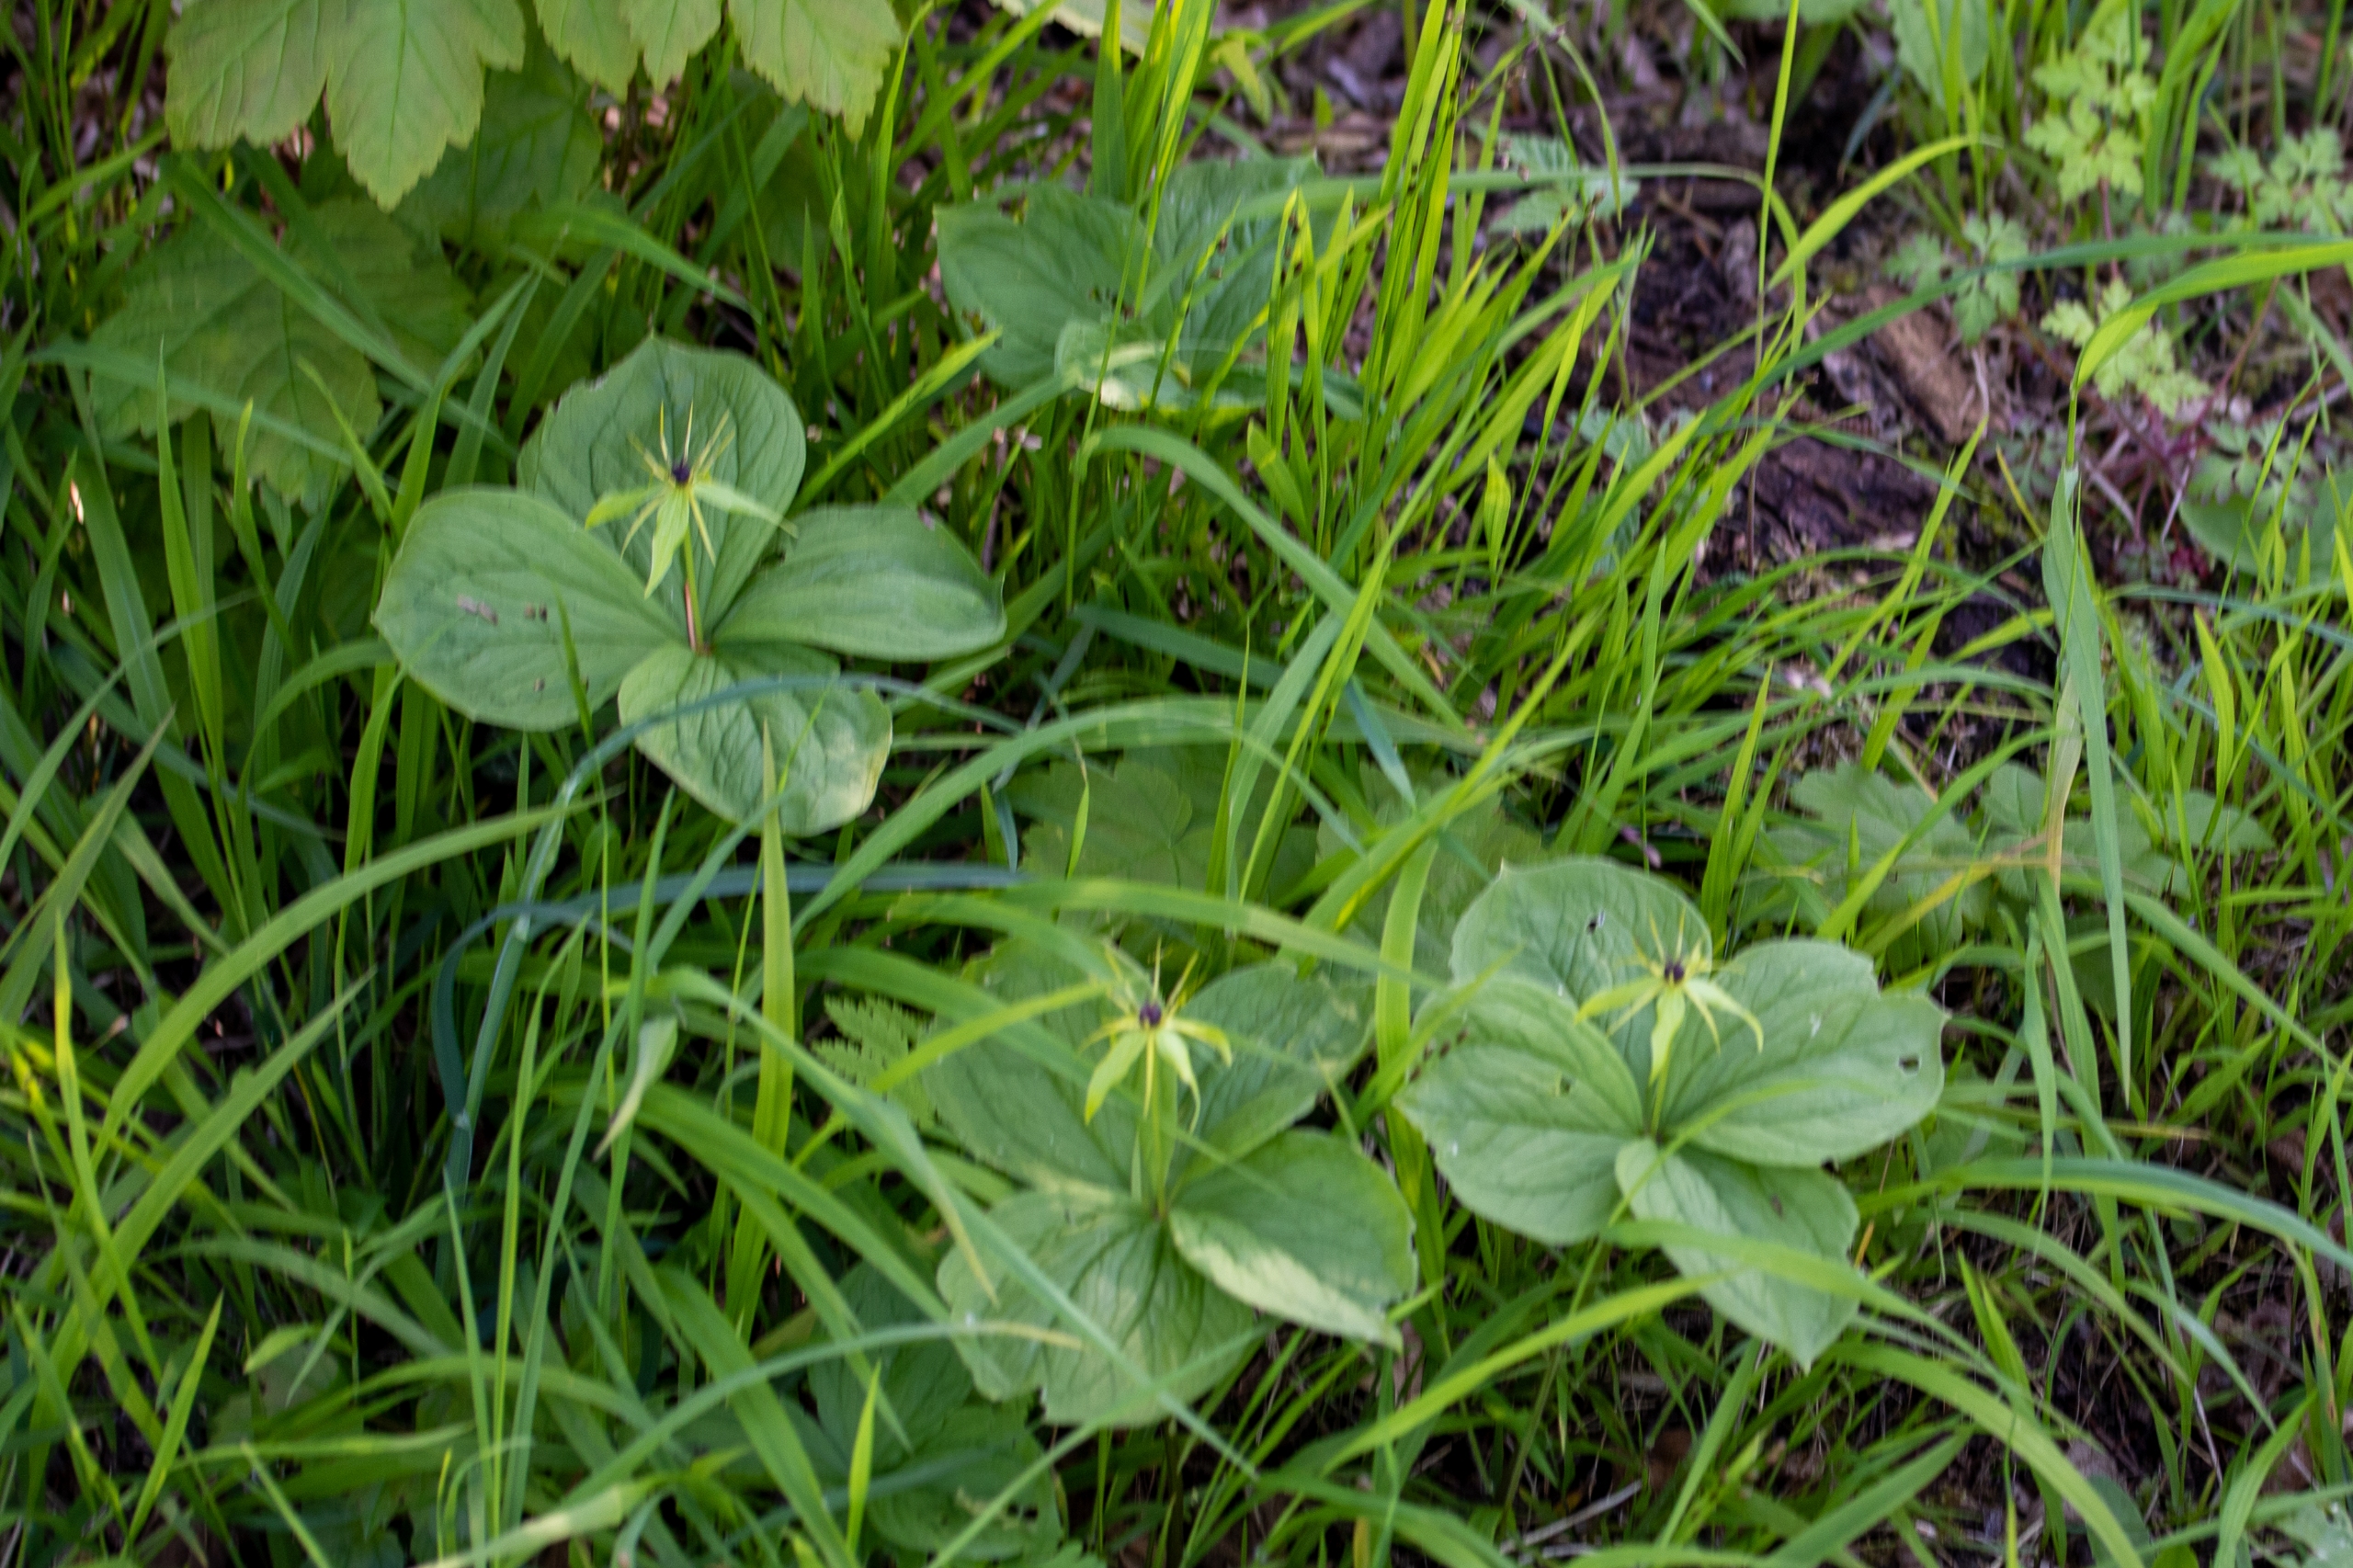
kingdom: Plantae
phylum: Tracheophyta
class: Liliopsida
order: Liliales
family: Melanthiaceae
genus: Paris
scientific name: Paris quadrifolia
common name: Firblad
